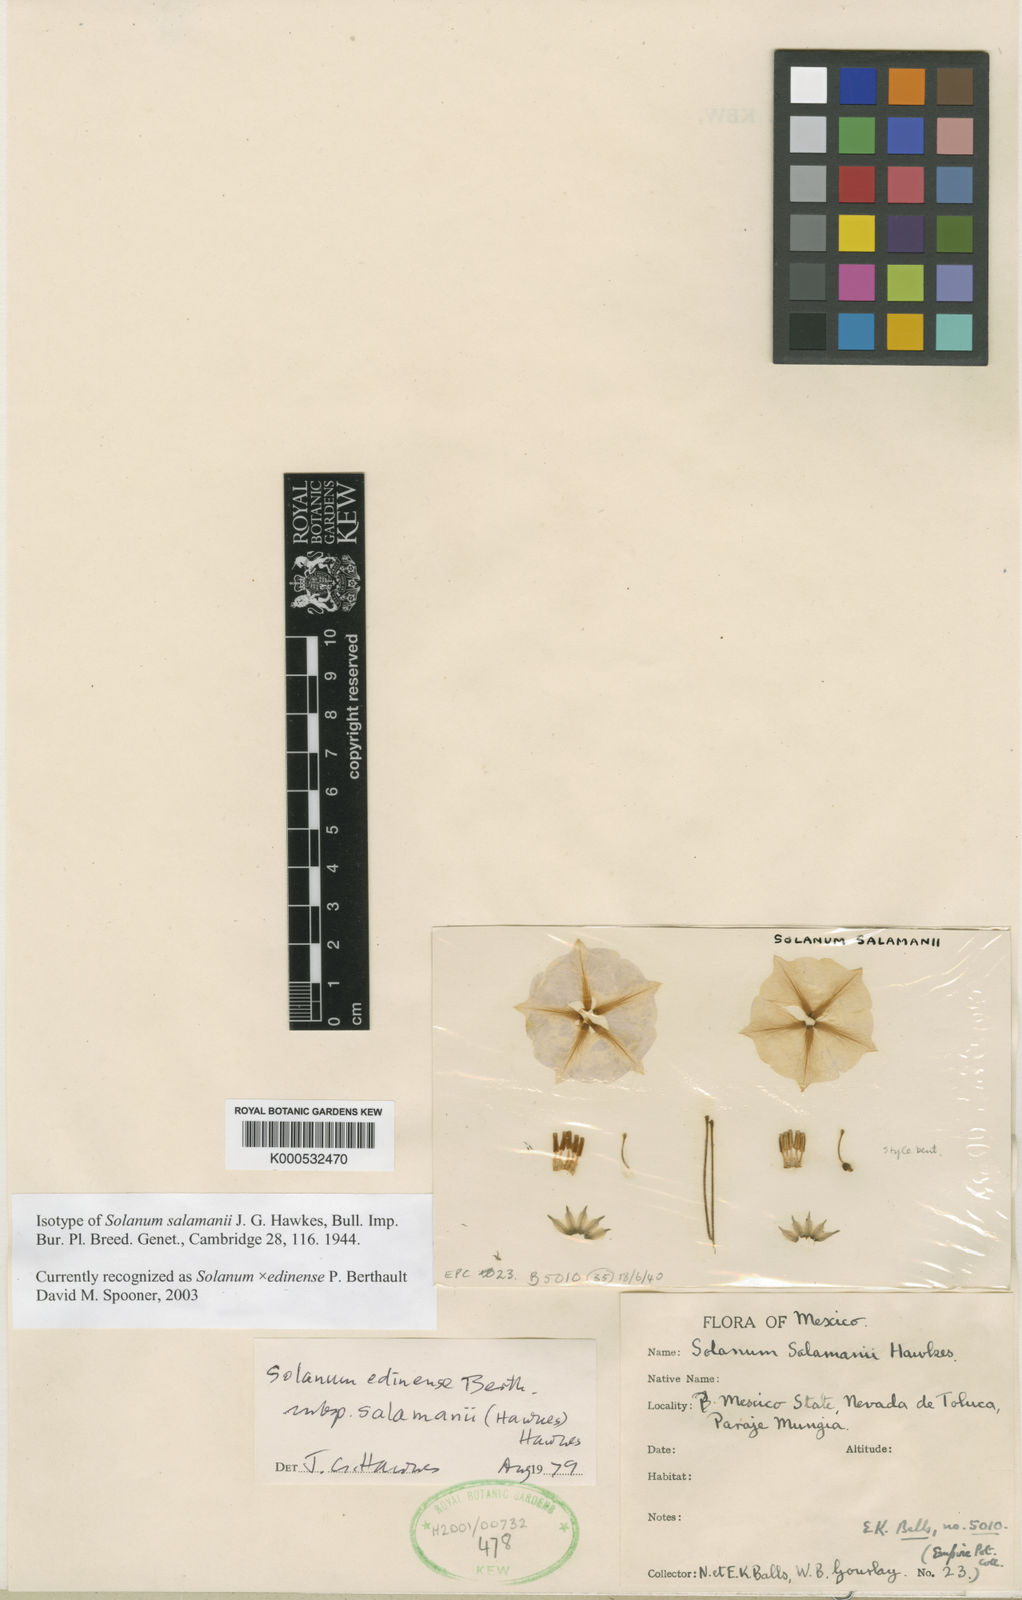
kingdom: Plantae
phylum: Tracheophyta
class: Magnoliopsida
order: Solanales
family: Solanaceae
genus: Solanum
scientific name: Solanum
